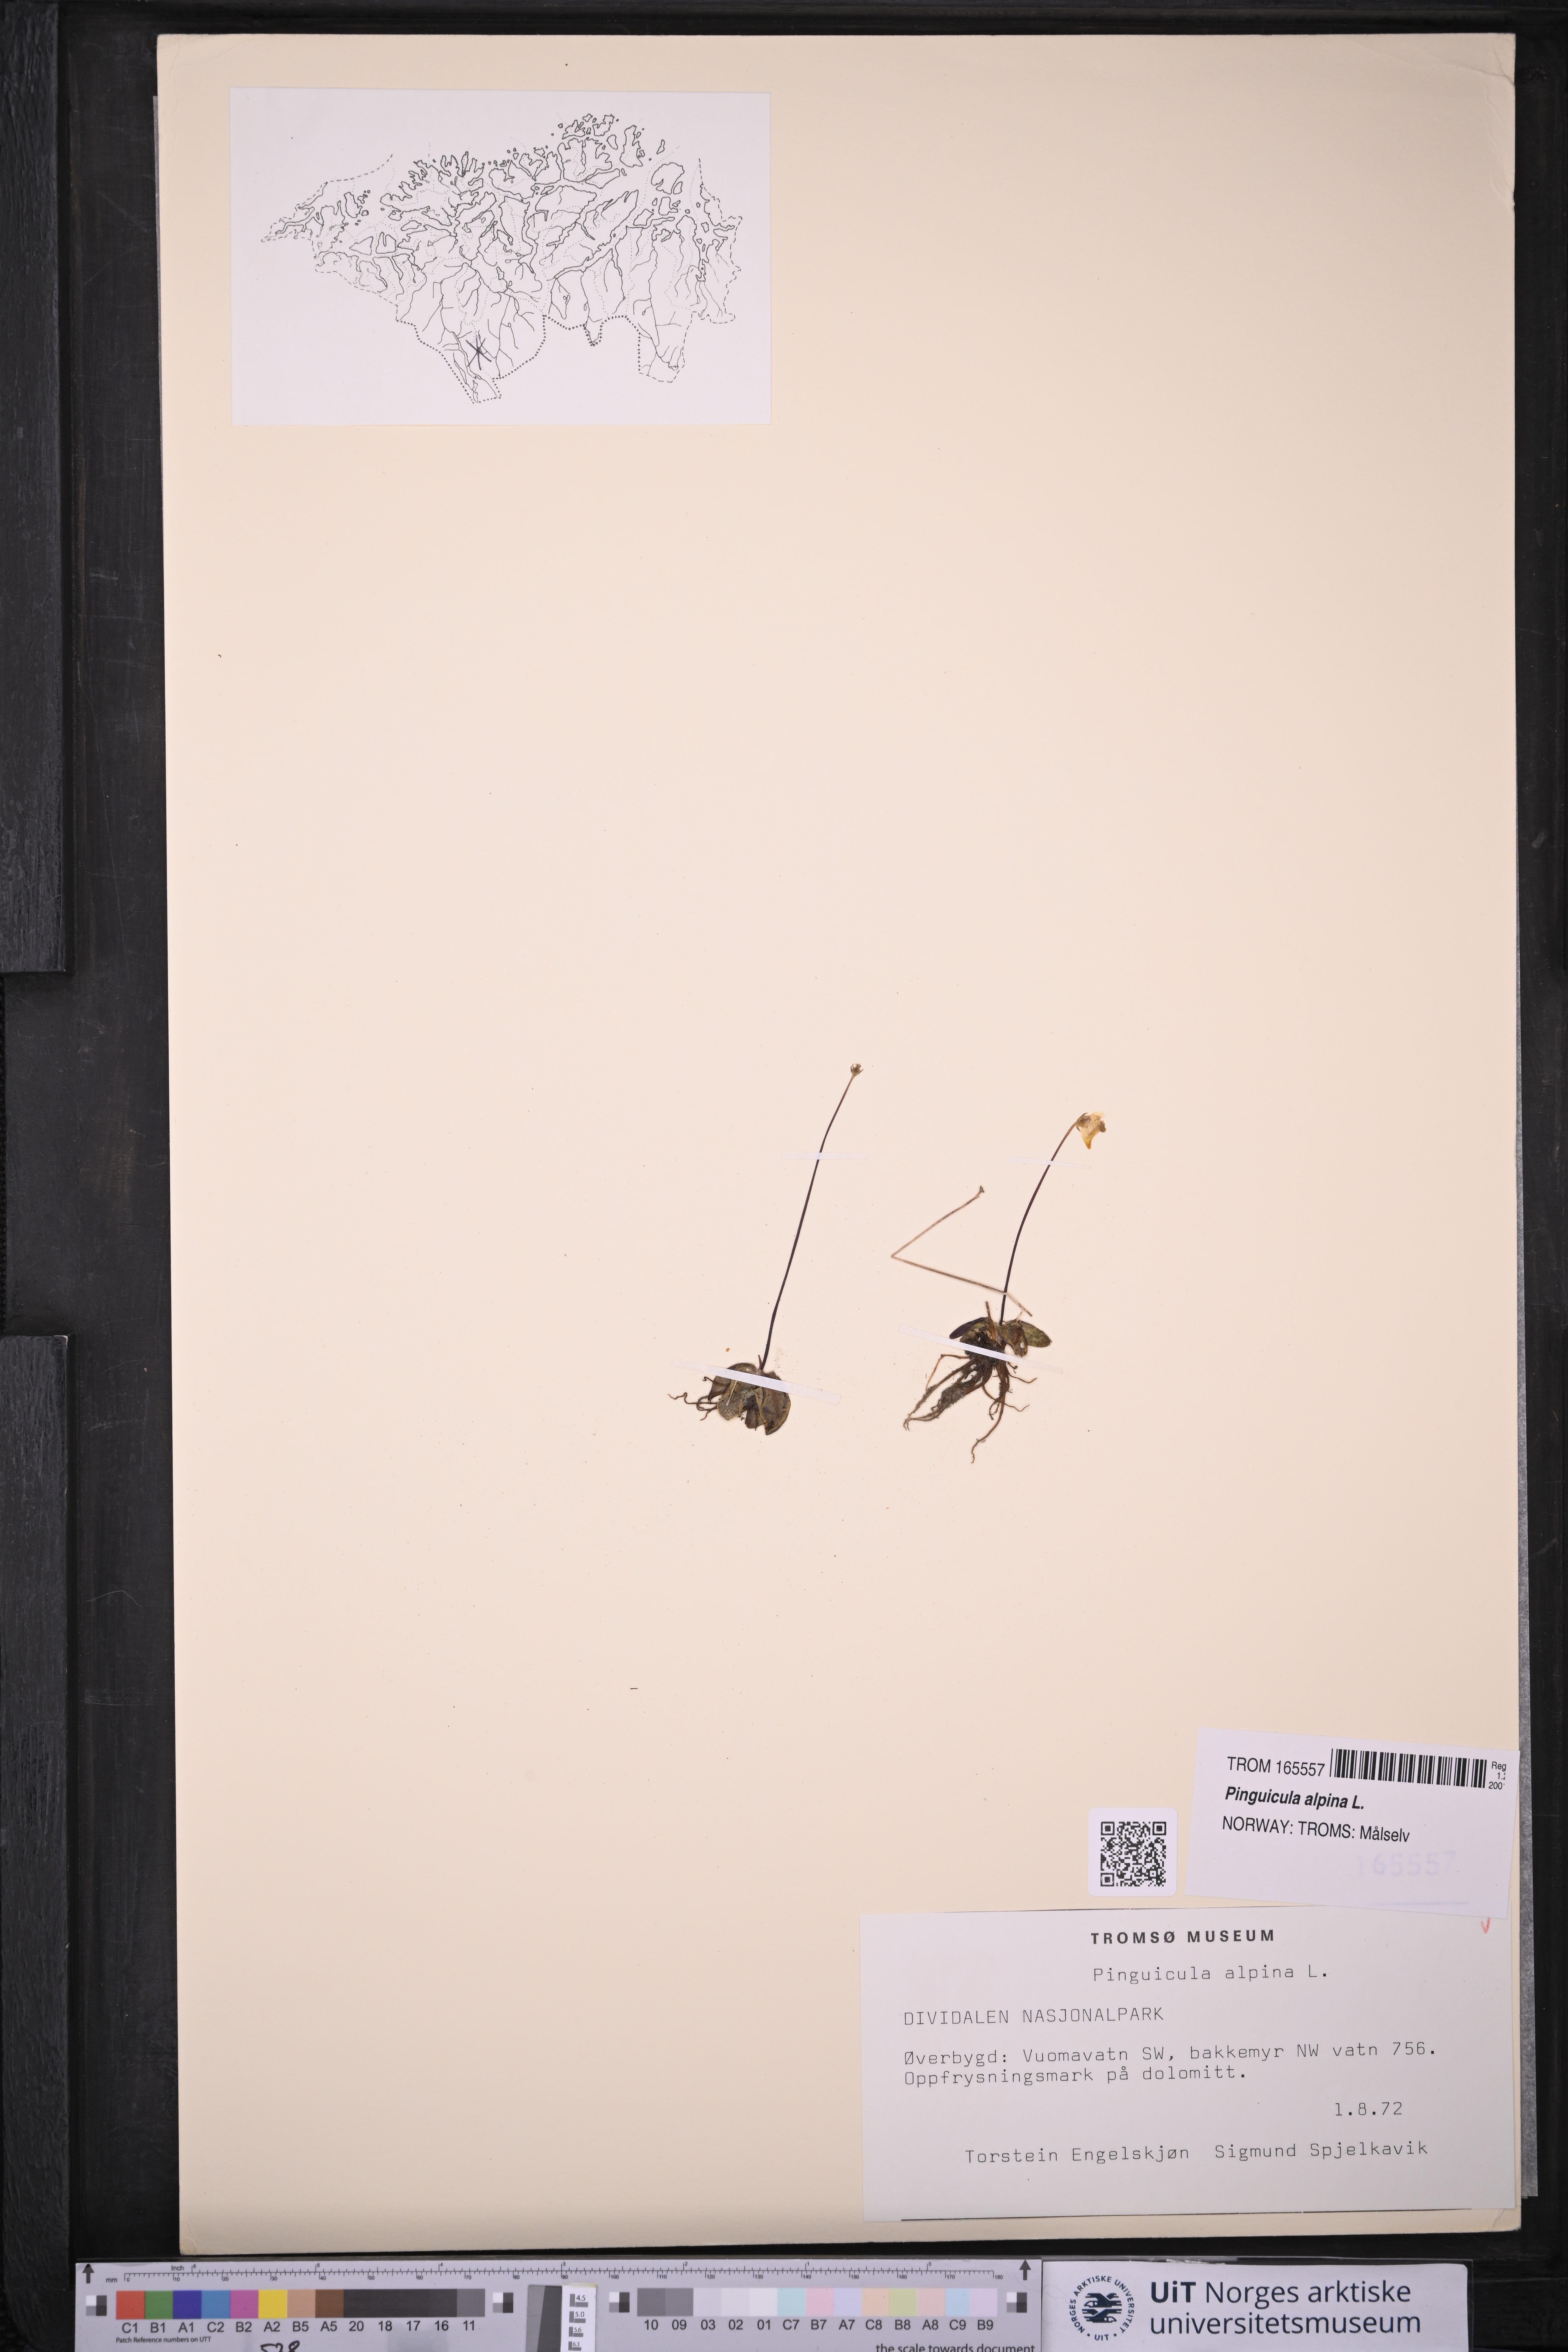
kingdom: Plantae
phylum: Tracheophyta
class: Magnoliopsida
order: Lamiales
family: Lentibulariaceae
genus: Pinguicula
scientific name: Pinguicula alpina
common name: Alpine butterwort
